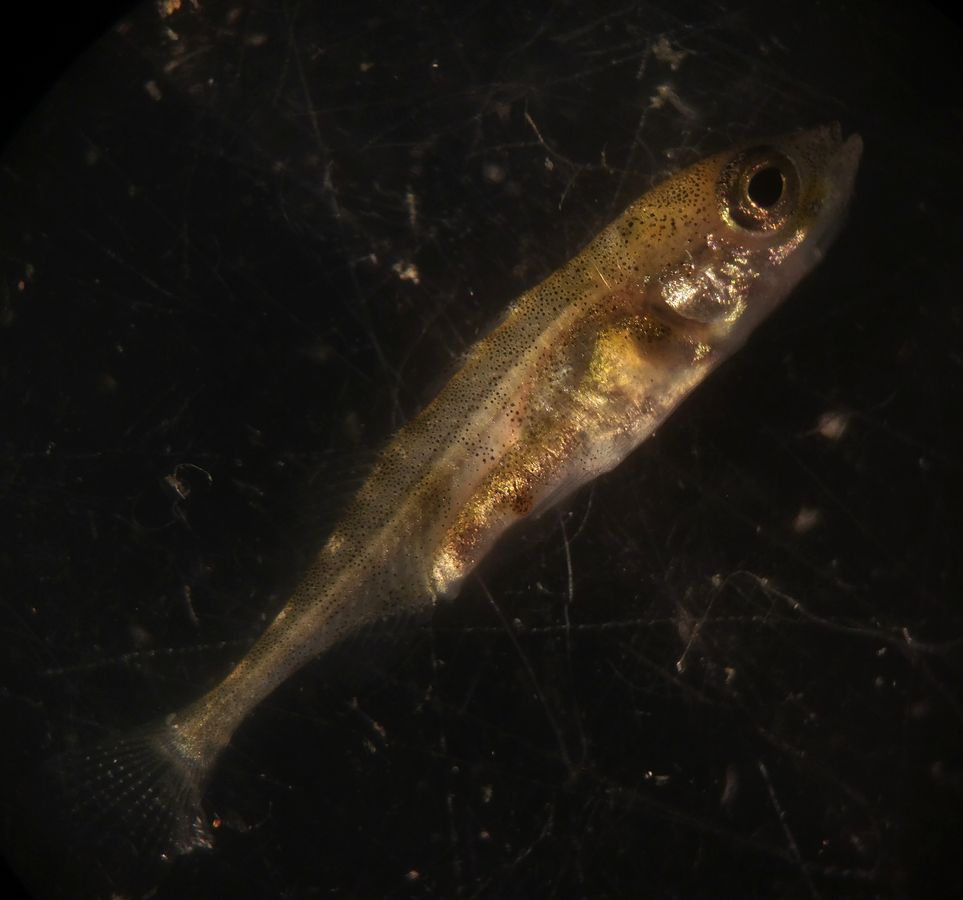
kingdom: Animalia
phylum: Chordata
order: Gasterosteiformes
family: Gasterosteidae
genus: Gasterosteus
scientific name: Gasterosteus aculeatus
